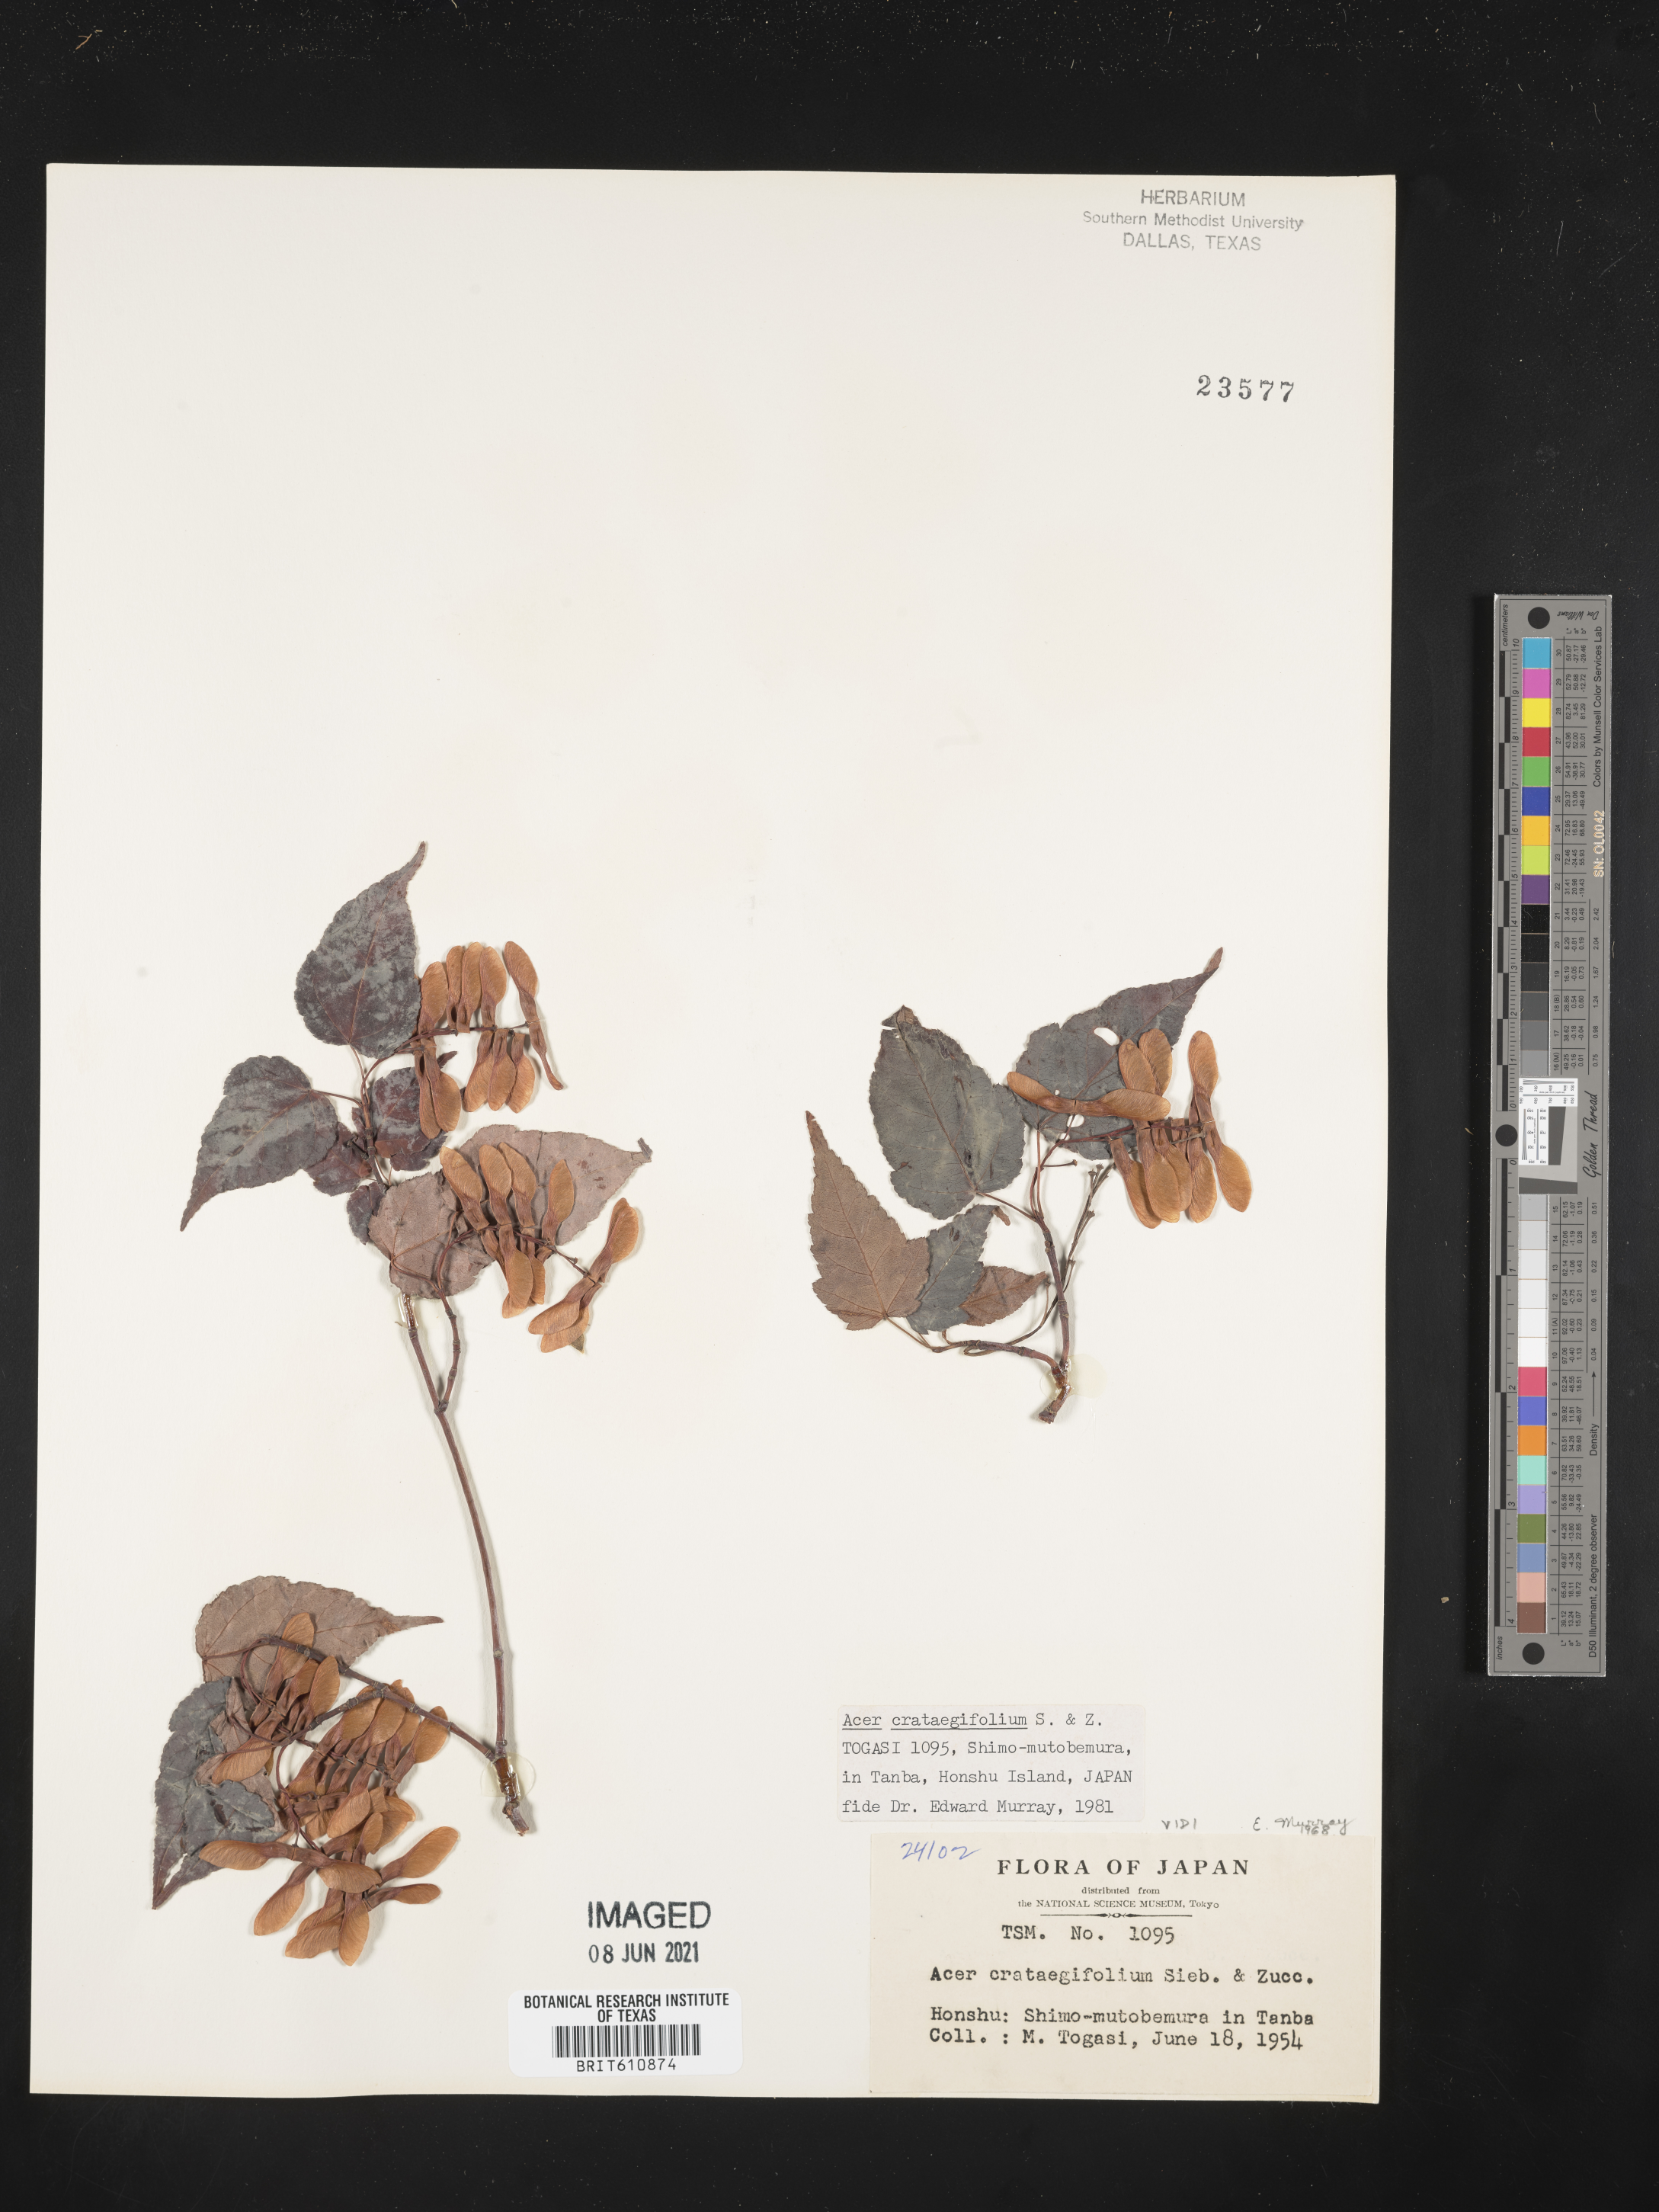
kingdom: Plantae
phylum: Tracheophyta
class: Magnoliopsida
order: Sapindales
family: Sapindaceae
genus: Acer
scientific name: Acer crataegifolium
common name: Hawthorn-leaf maple
